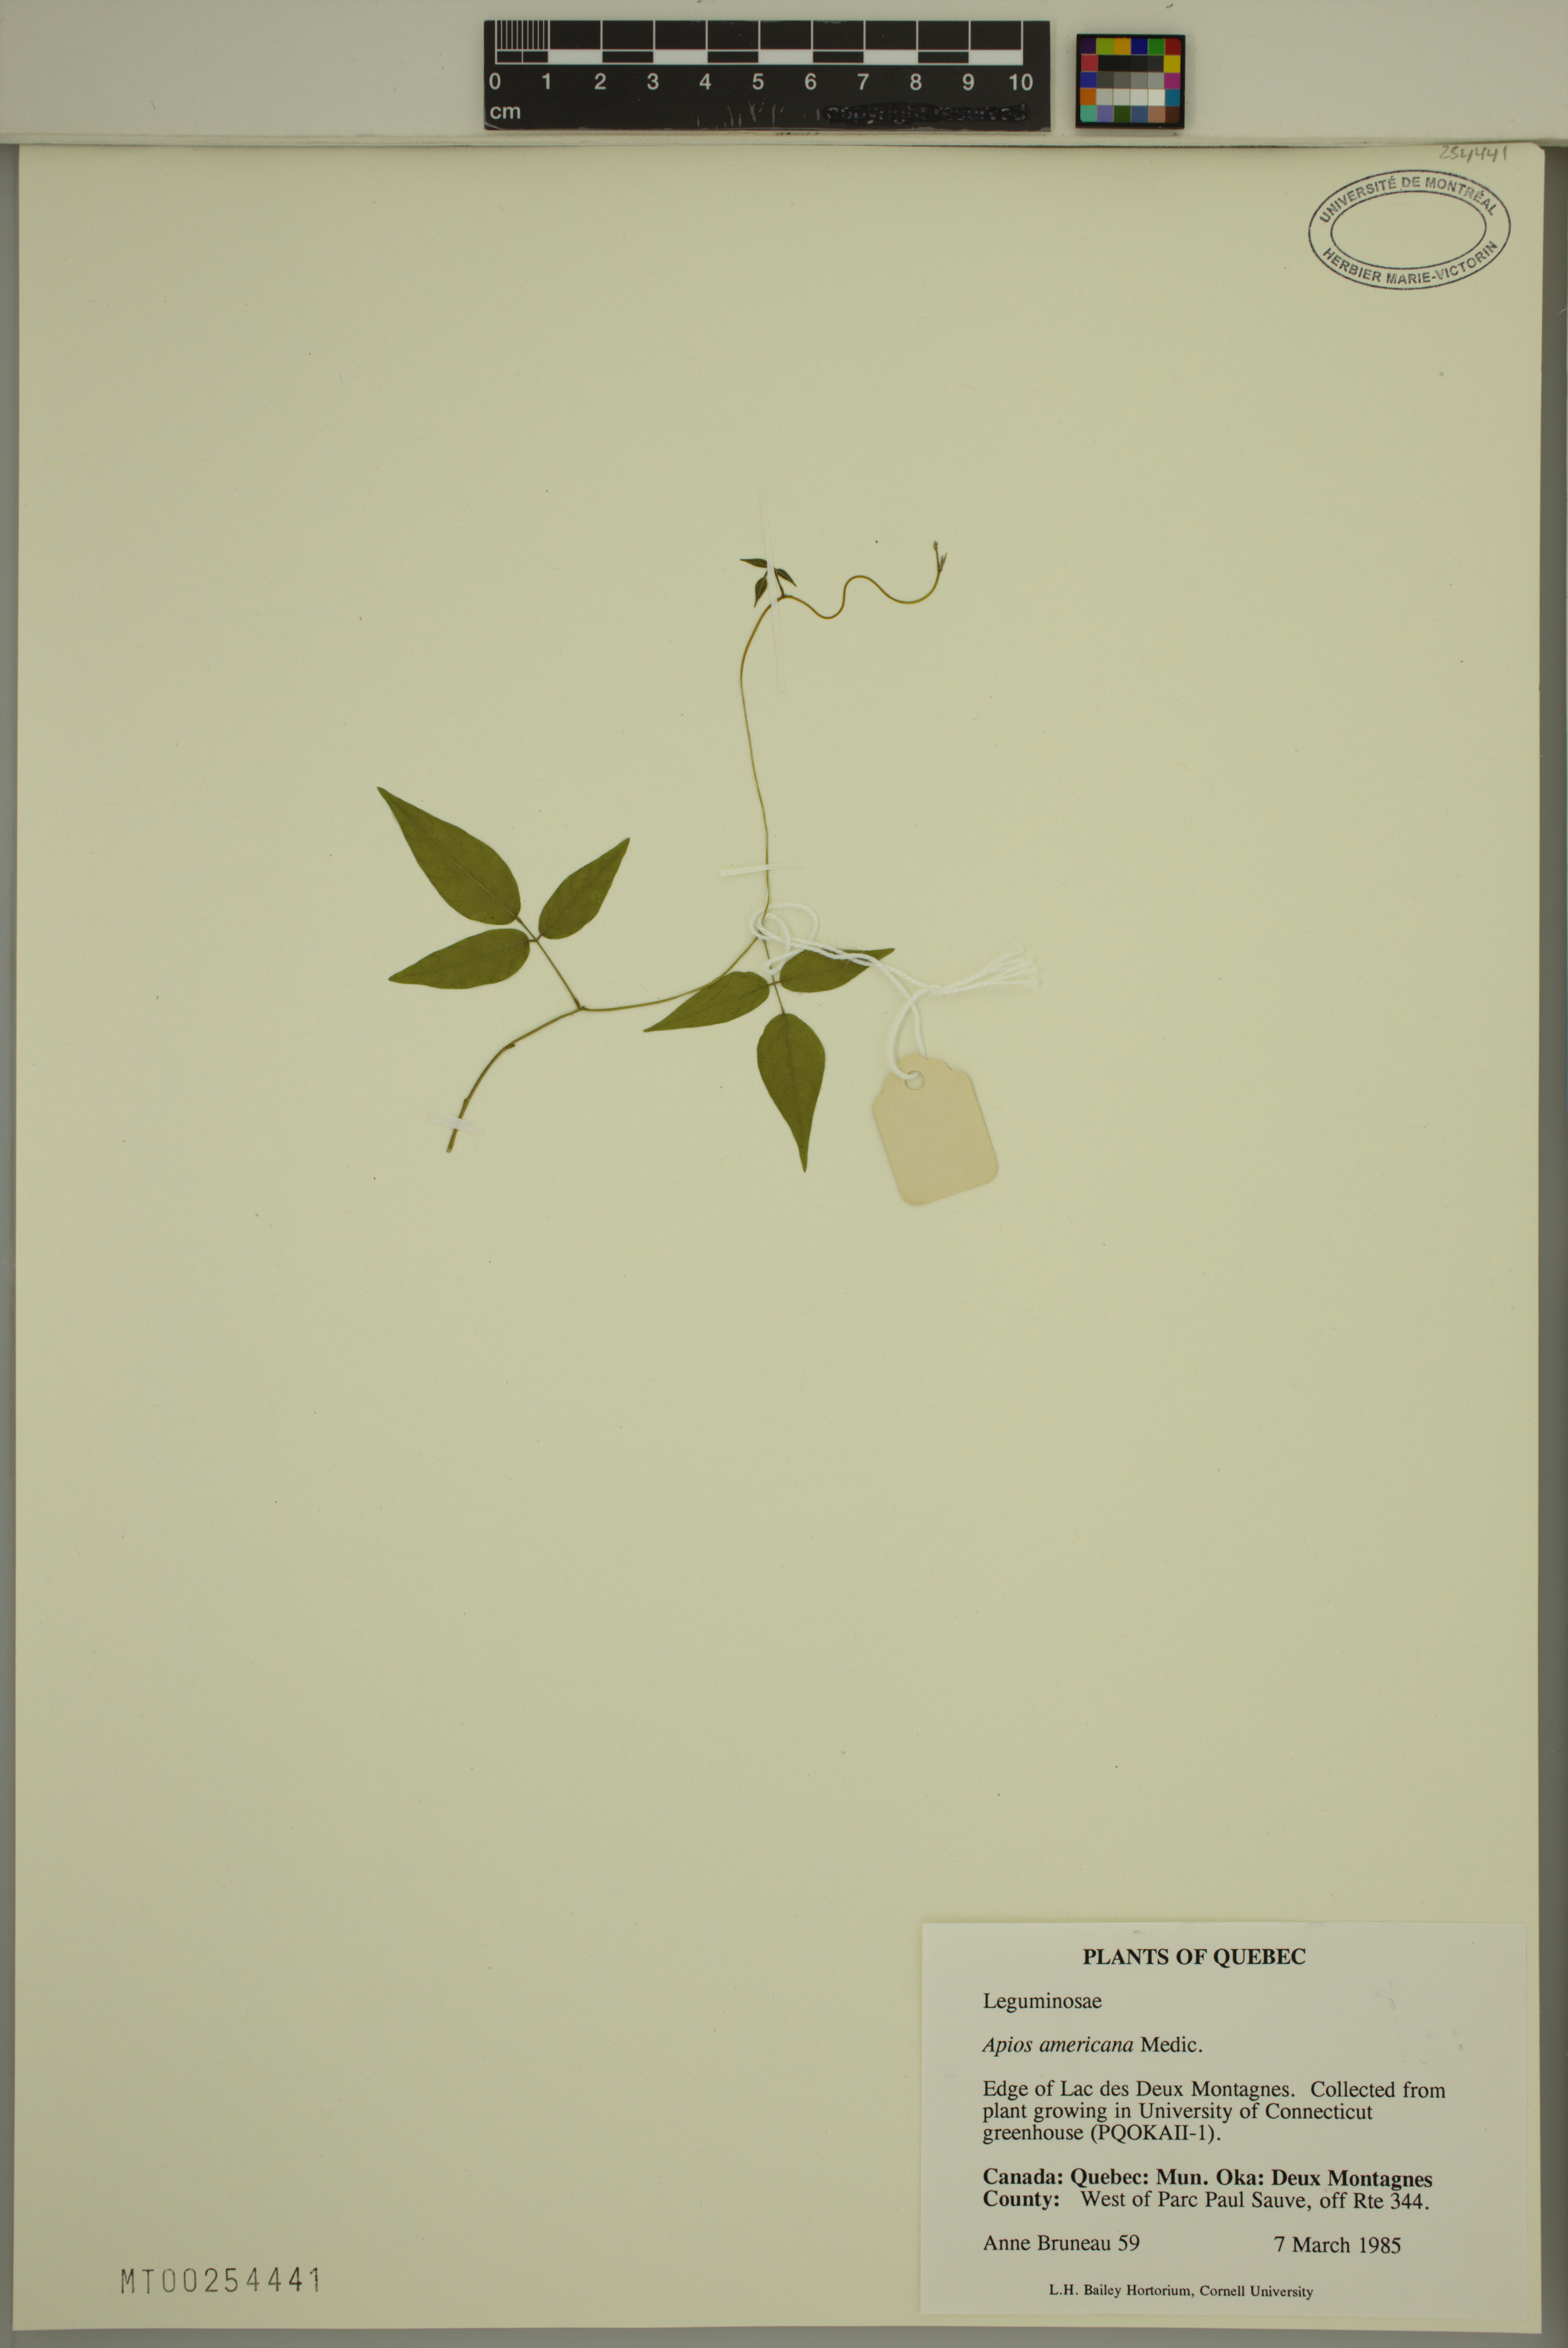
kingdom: Plantae
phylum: Tracheophyta
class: Magnoliopsida
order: Fabales
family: Fabaceae
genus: Apios
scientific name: Apios americana
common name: American potato-bean
